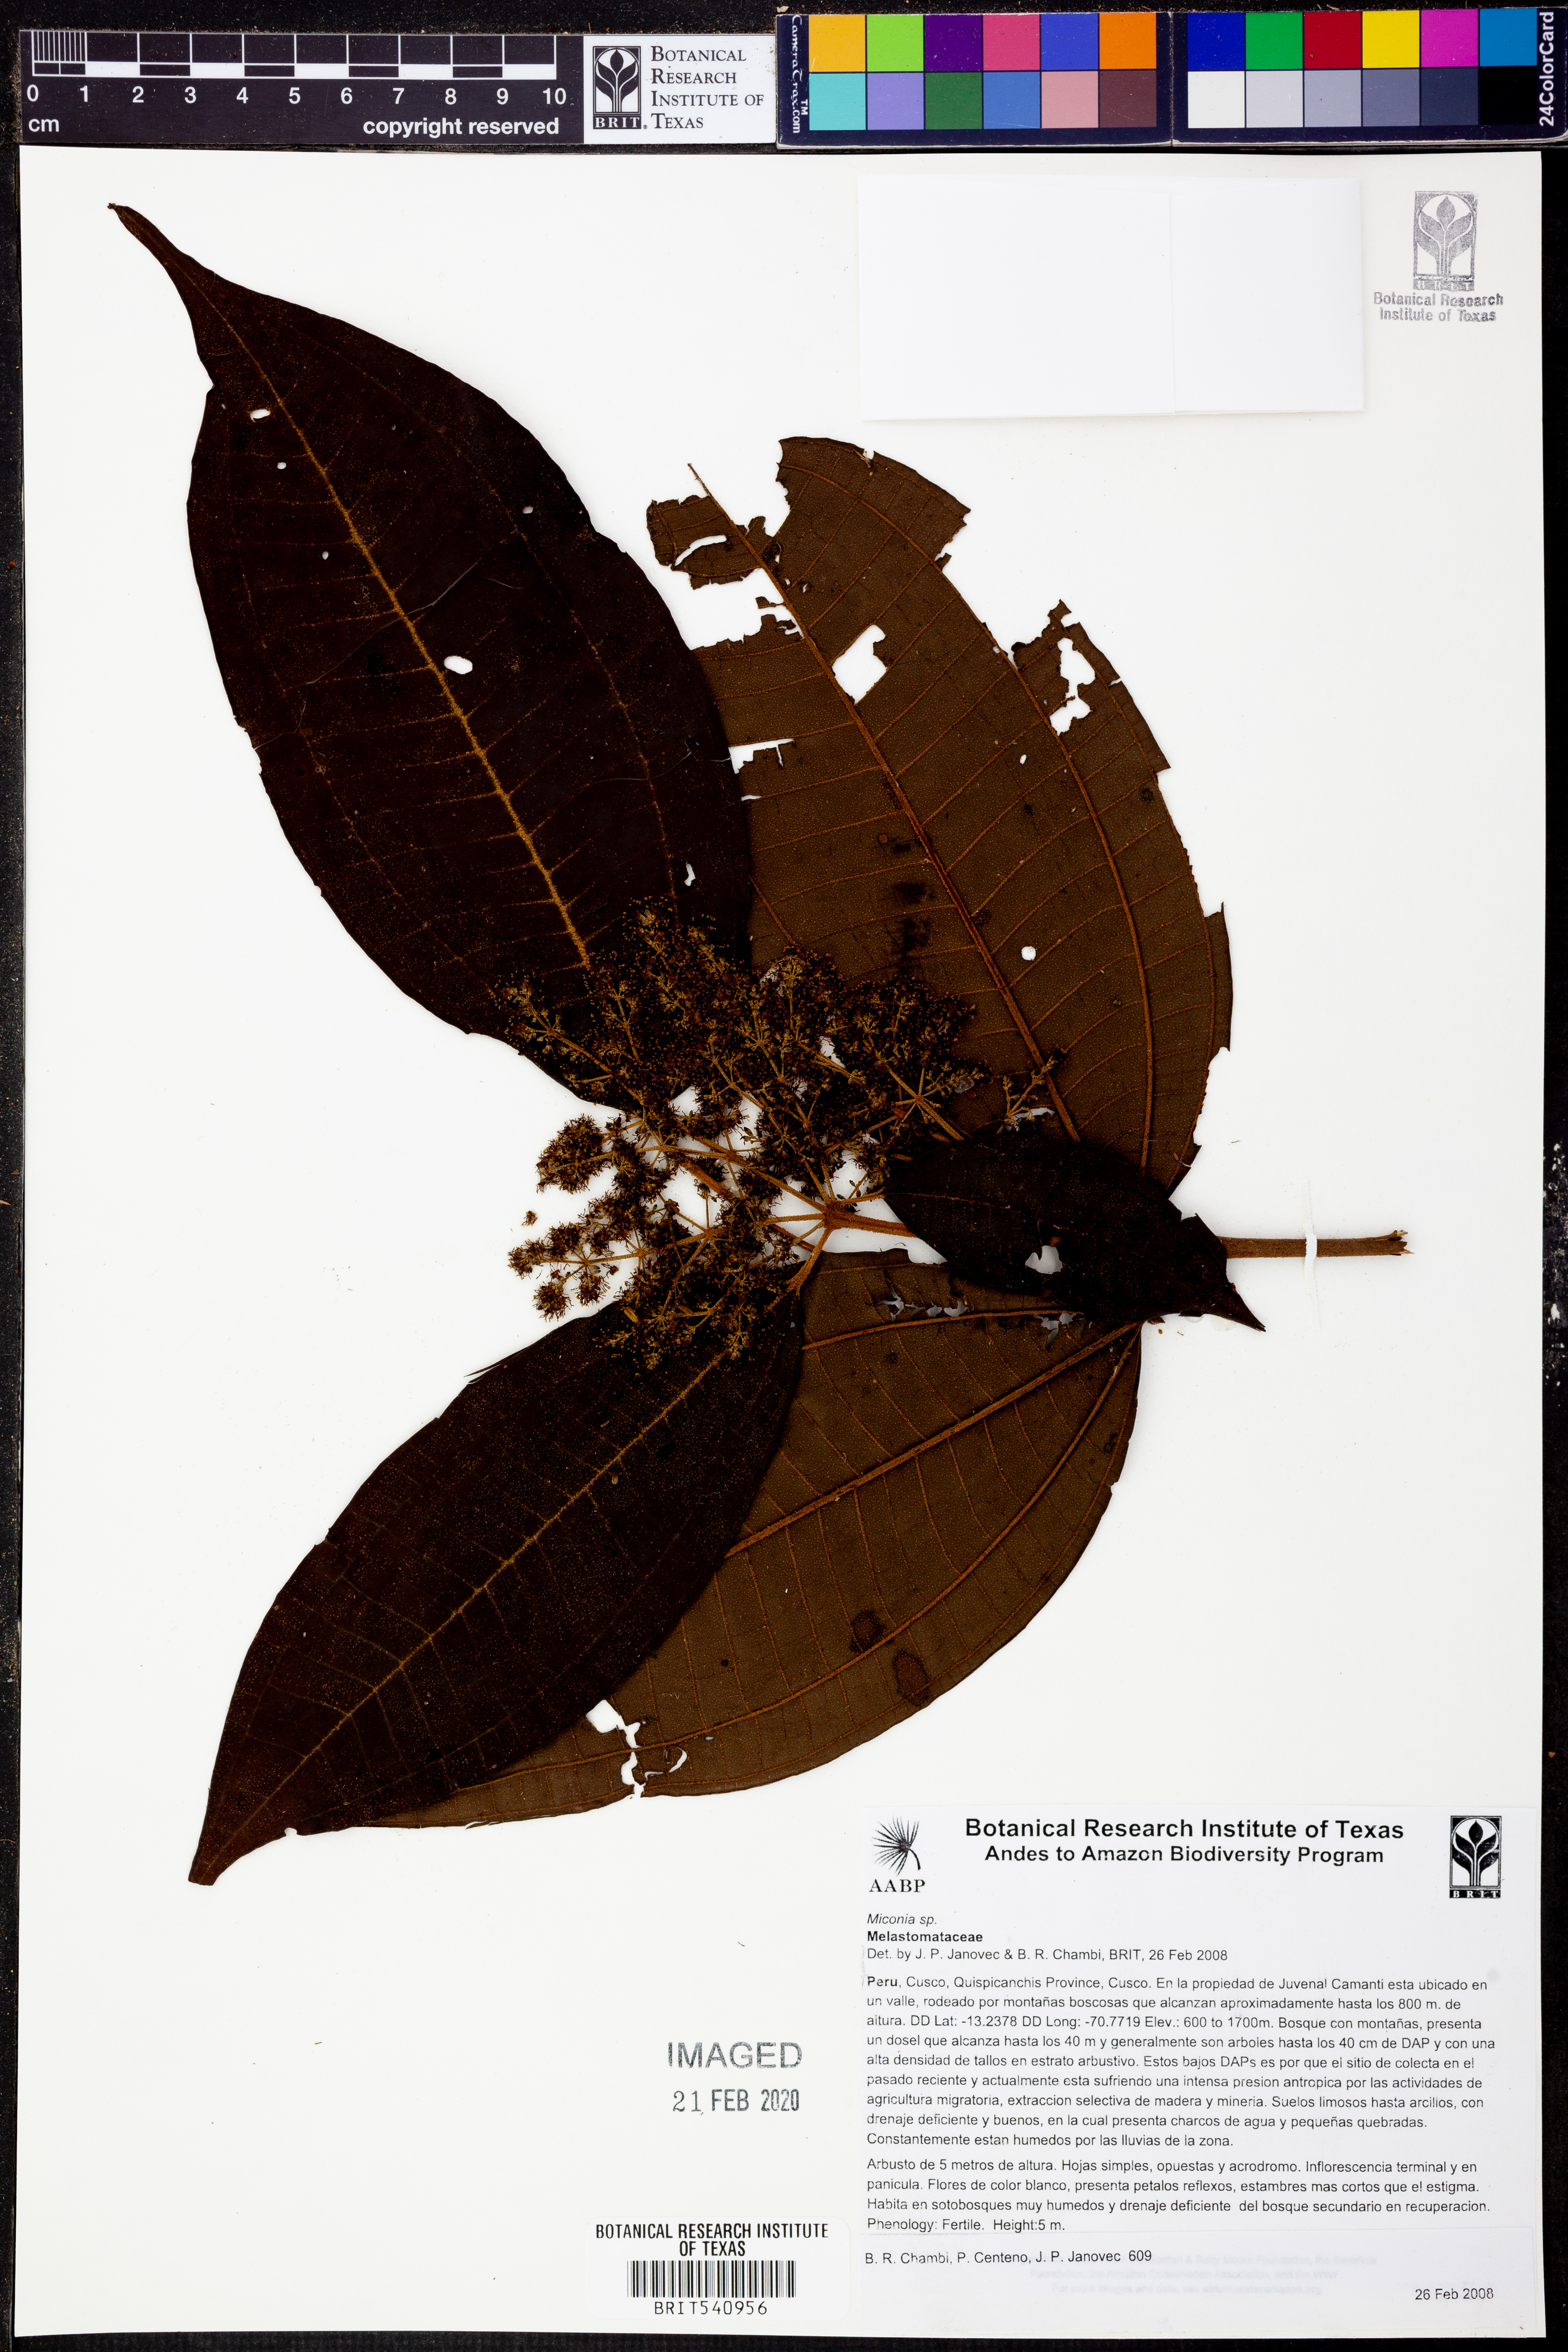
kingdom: Plantae
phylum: Tracheophyta
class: Magnoliopsida
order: Myrtales
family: Melastomataceae
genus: Miconia
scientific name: Miconia
